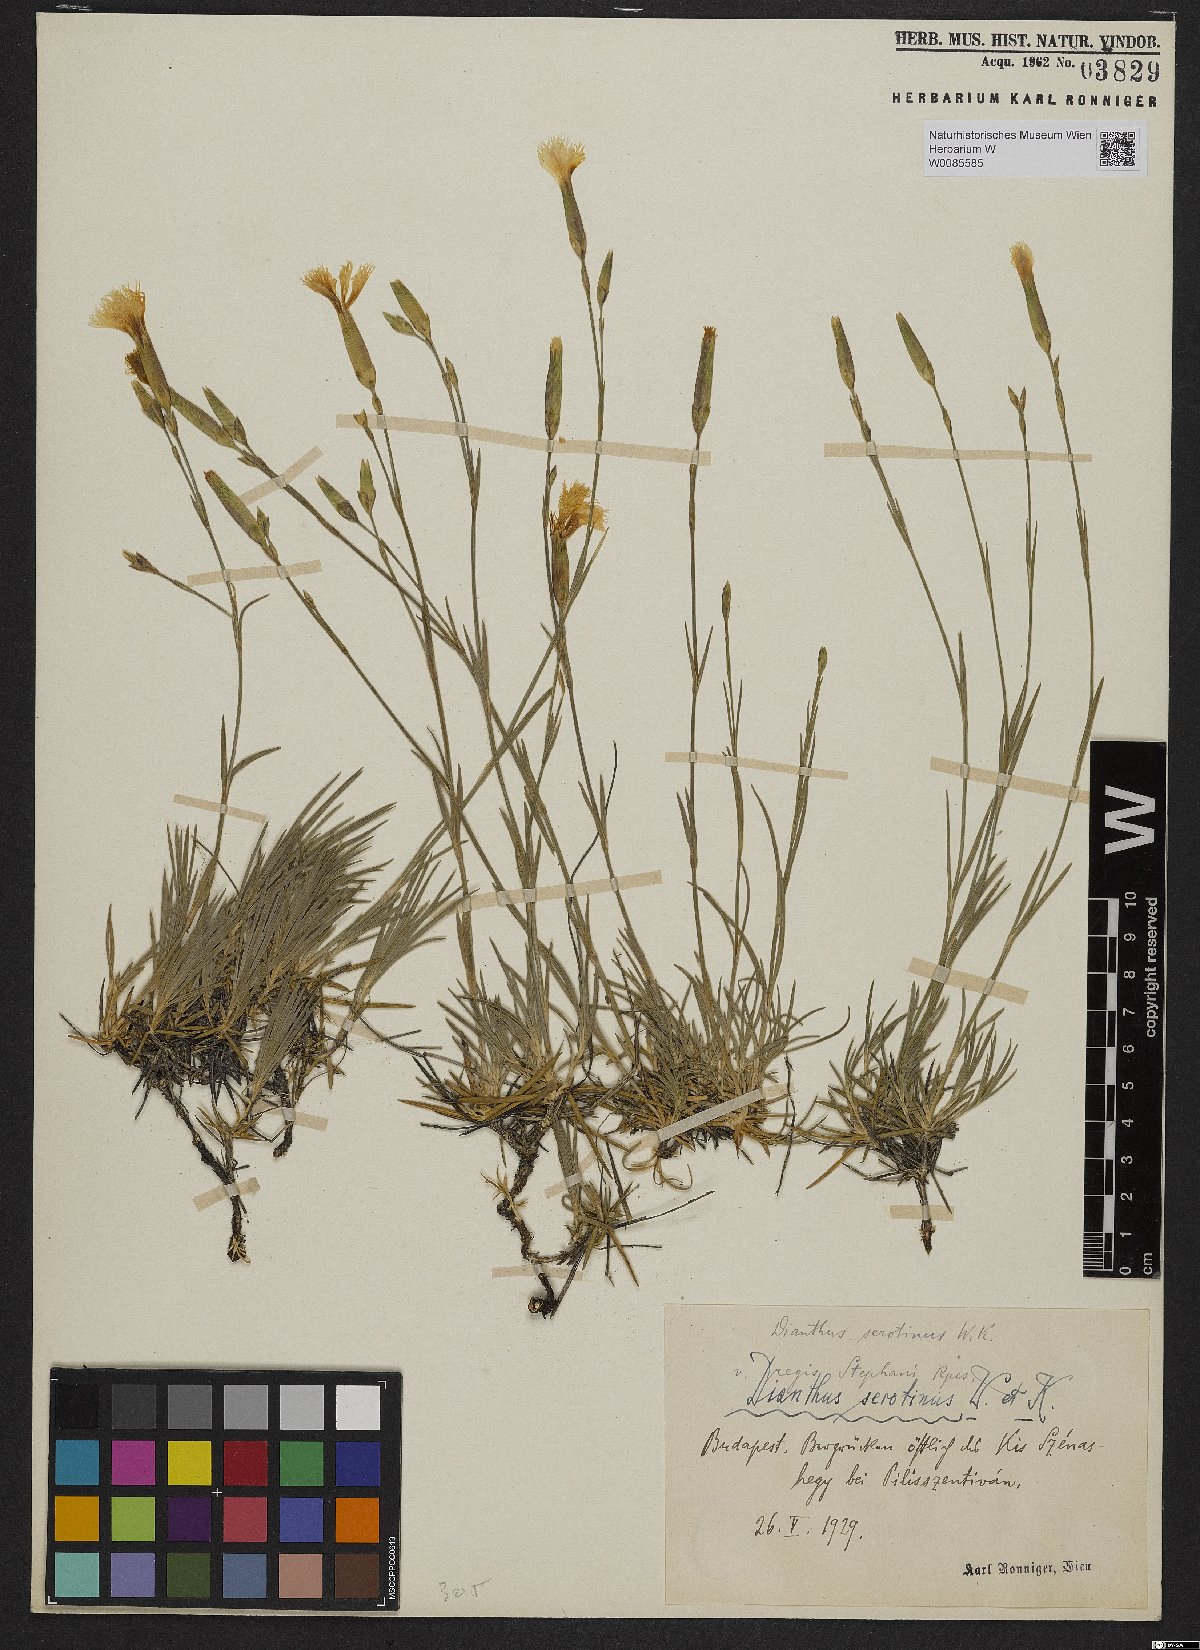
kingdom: Plantae
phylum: Tracheophyta
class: Magnoliopsida
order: Caryophyllales
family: Caryophyllaceae
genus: Dianthus
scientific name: Dianthus plumarius
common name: Pink
